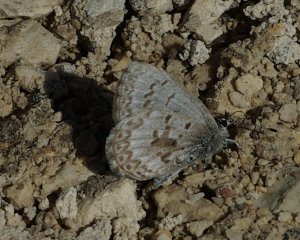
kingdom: Animalia
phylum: Arthropoda
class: Insecta
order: Lepidoptera
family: Lycaenidae
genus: Celastrina
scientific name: Celastrina lucia
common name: Northern Spring Azure
